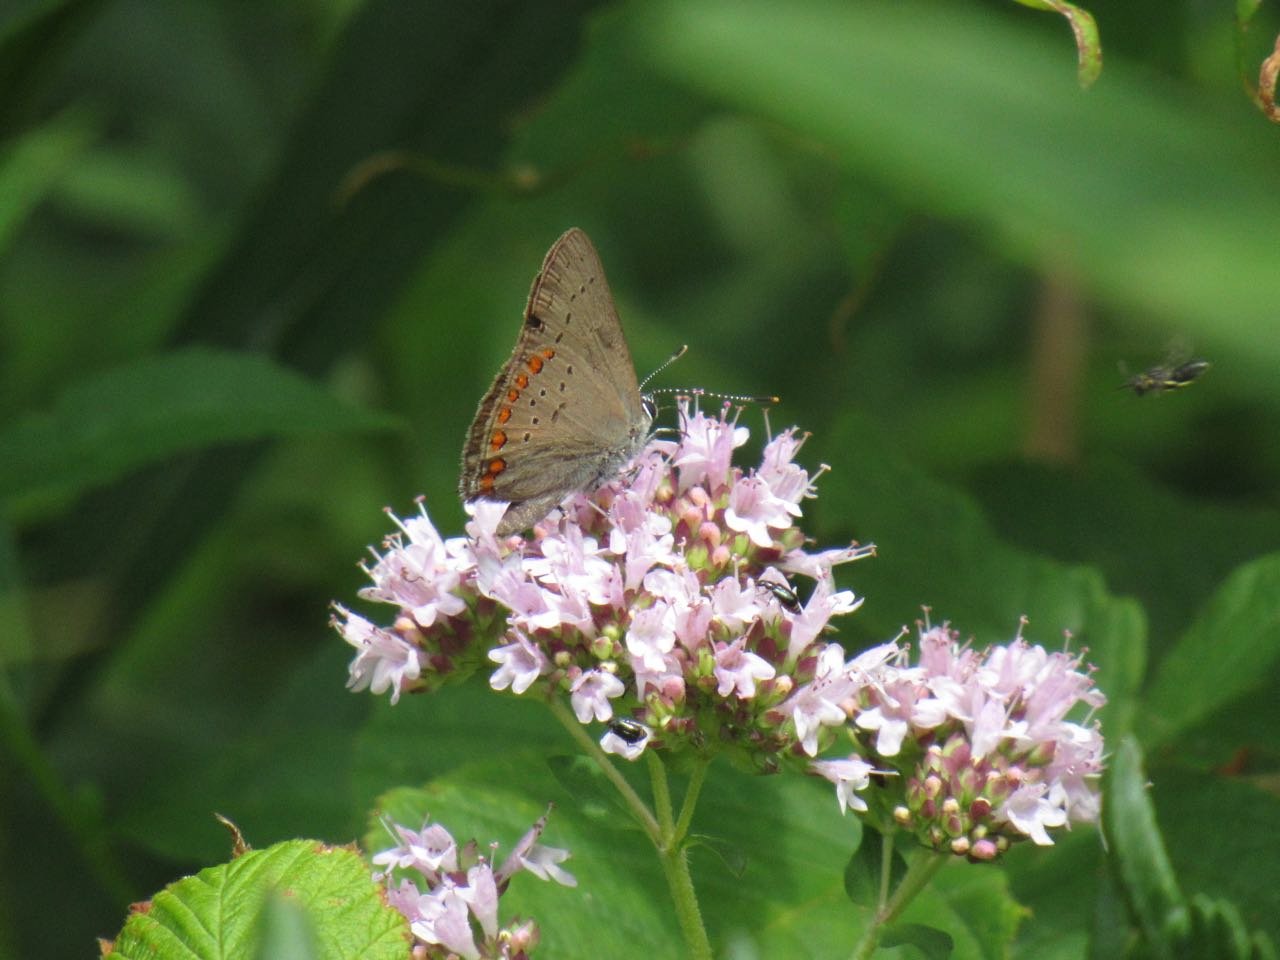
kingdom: Animalia
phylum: Arthropoda
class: Insecta
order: Lepidoptera
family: Lycaenidae
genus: Harkenclenus
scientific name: Harkenclenus titus
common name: Coral Hairstreak
